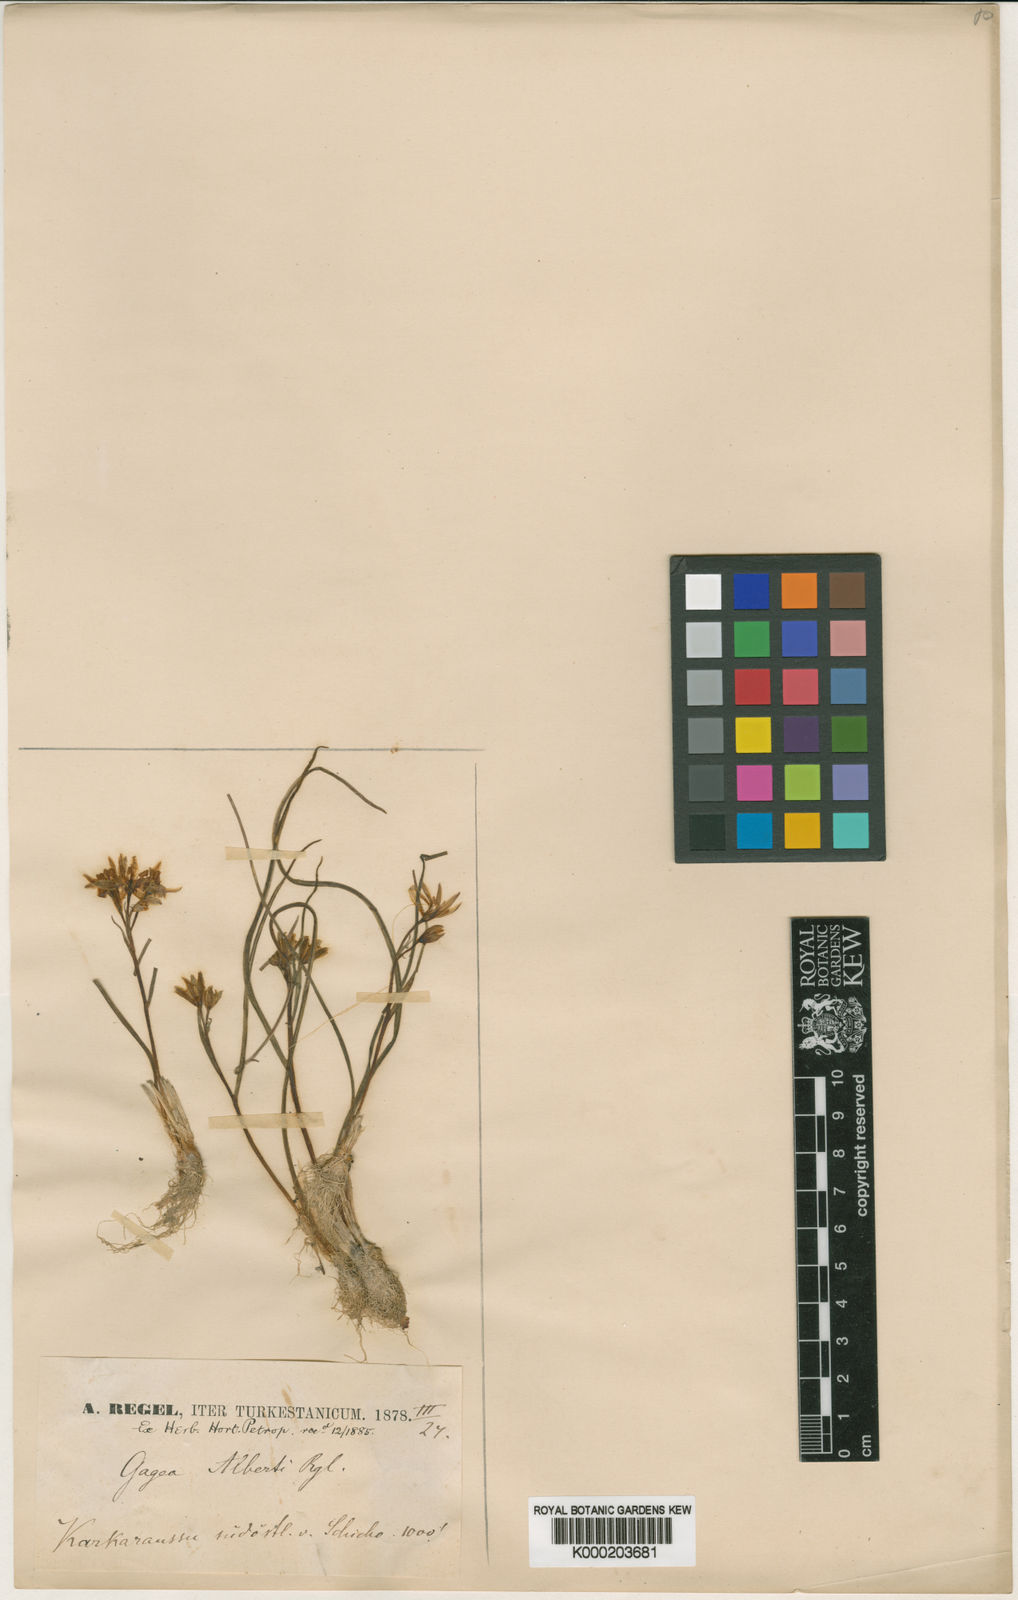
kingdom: Plantae
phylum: Tracheophyta
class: Liliopsida
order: Liliales
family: Liliaceae
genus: Gagea
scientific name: Gagea alberti
